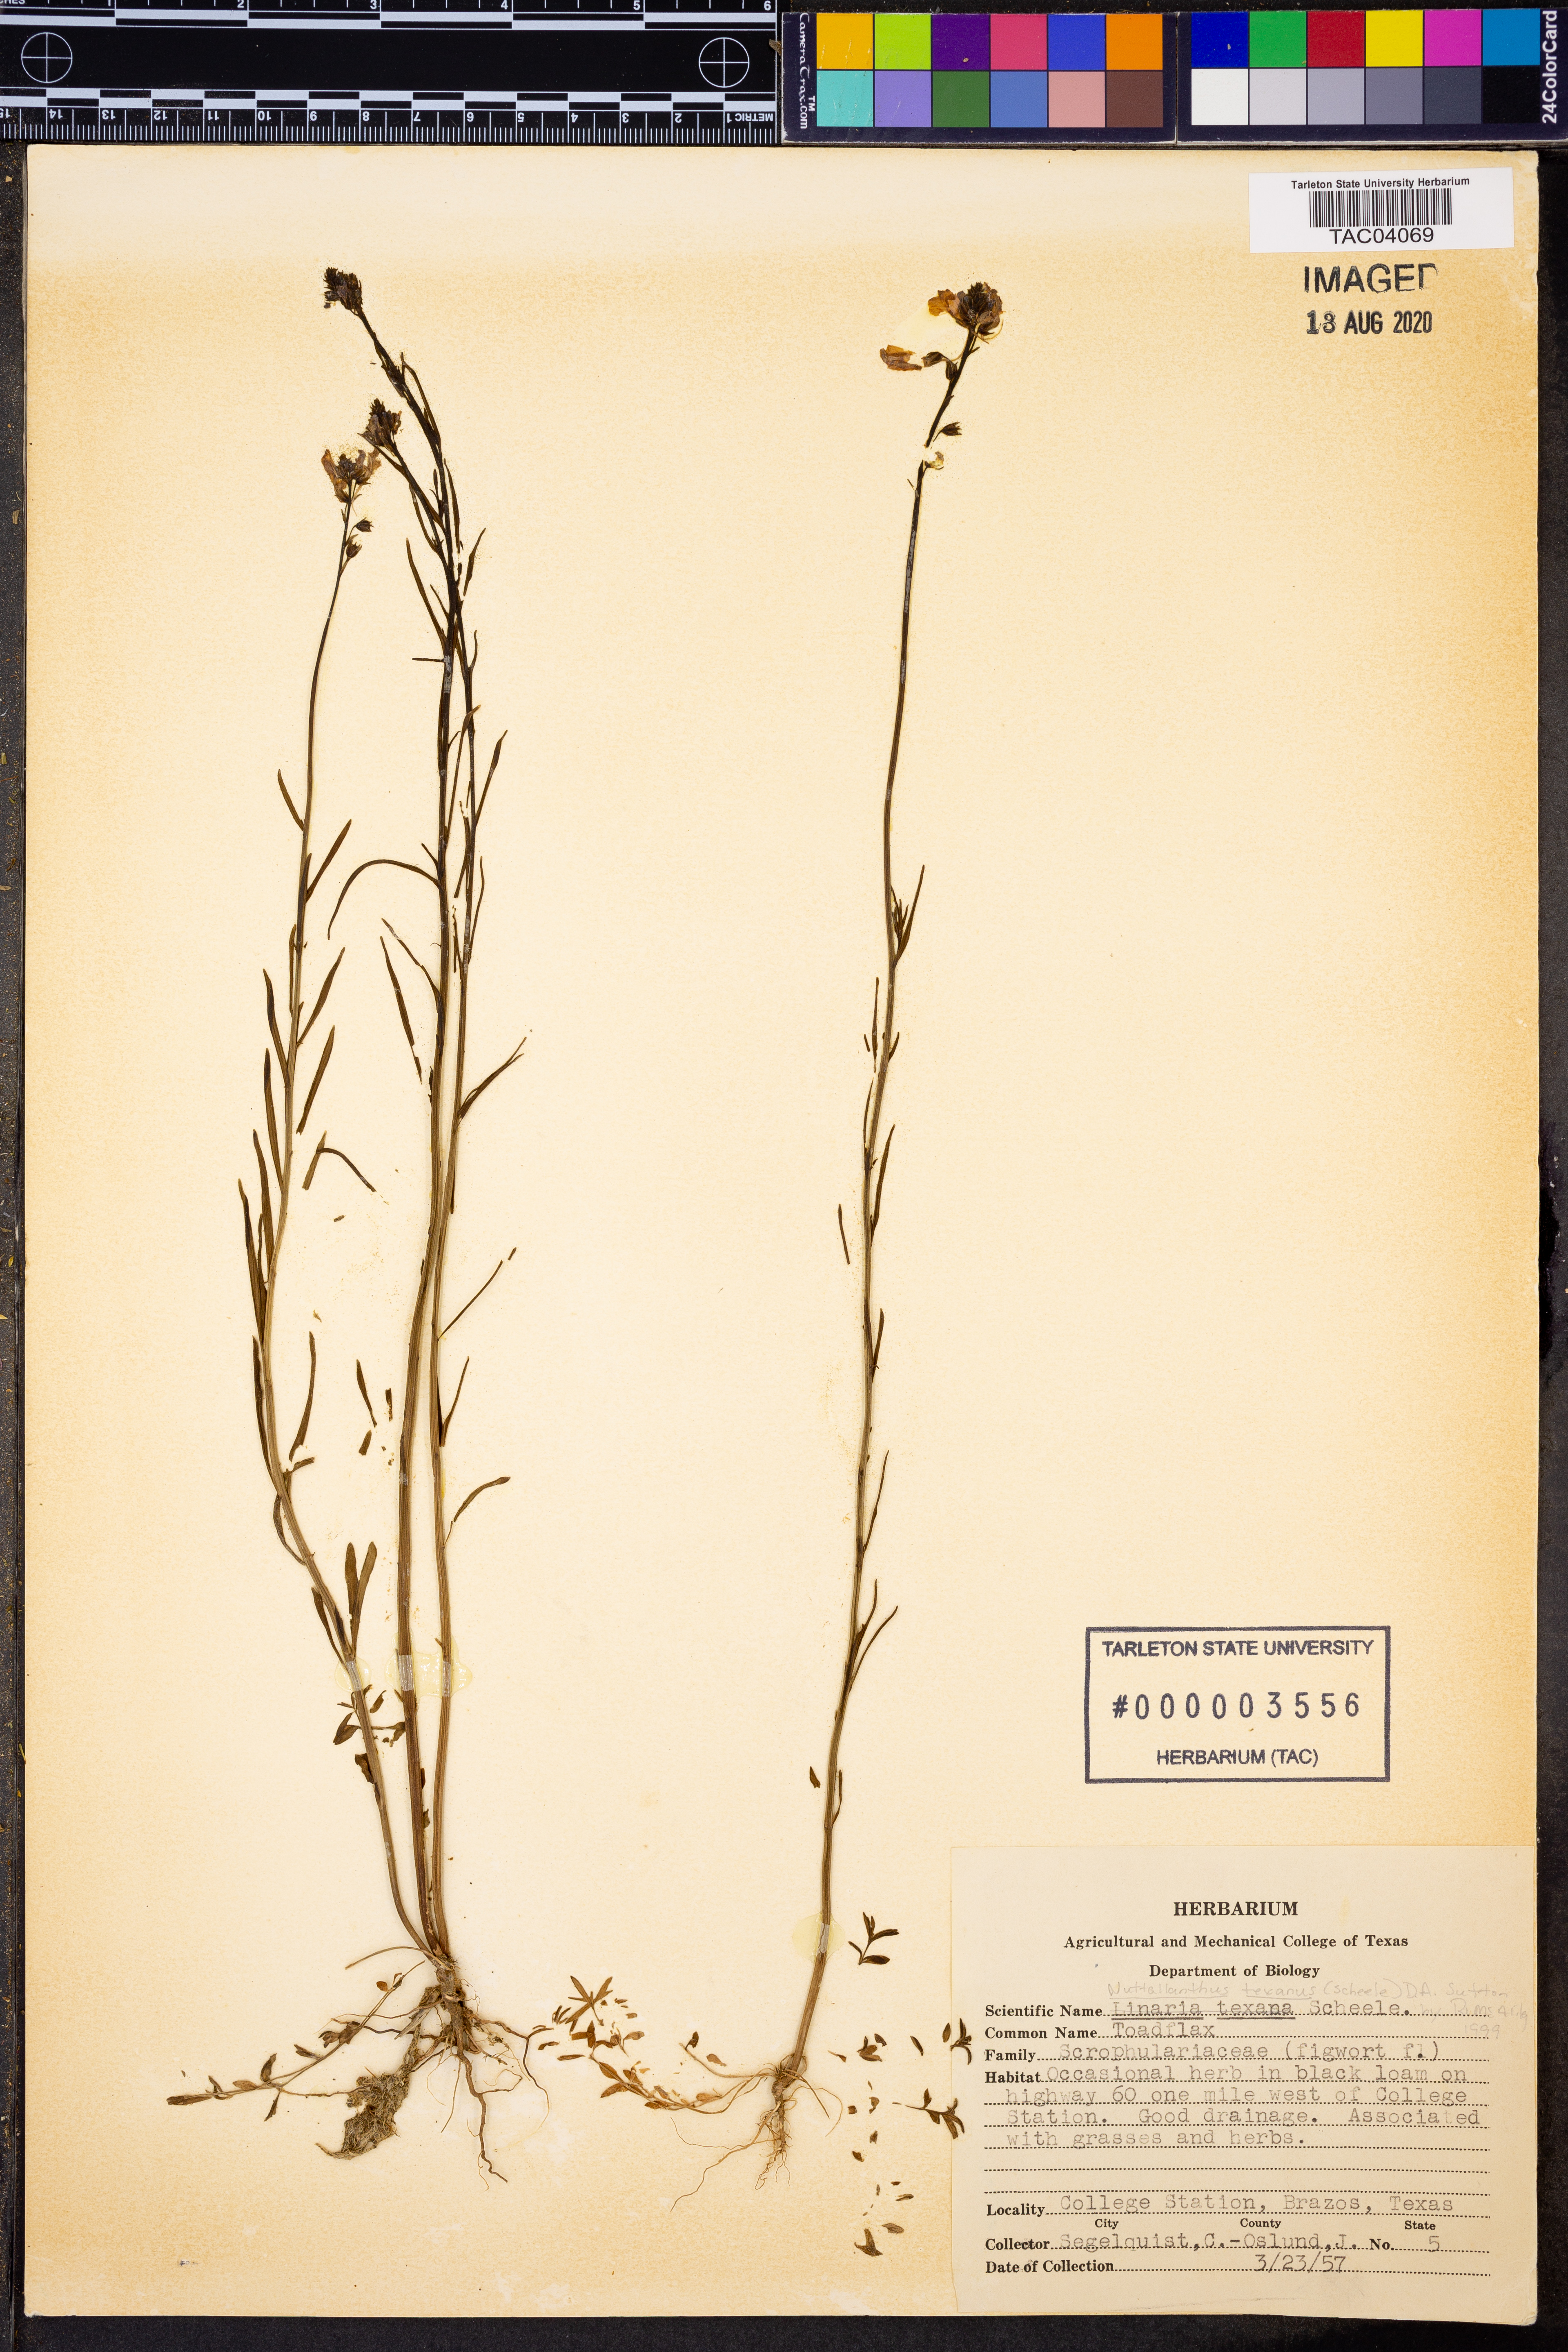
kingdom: Plantae
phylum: Tracheophyta
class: Magnoliopsida
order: Lamiales
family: Plantaginaceae
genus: Nuttallanthus
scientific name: Nuttallanthus texanus
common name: Texas toadflax
